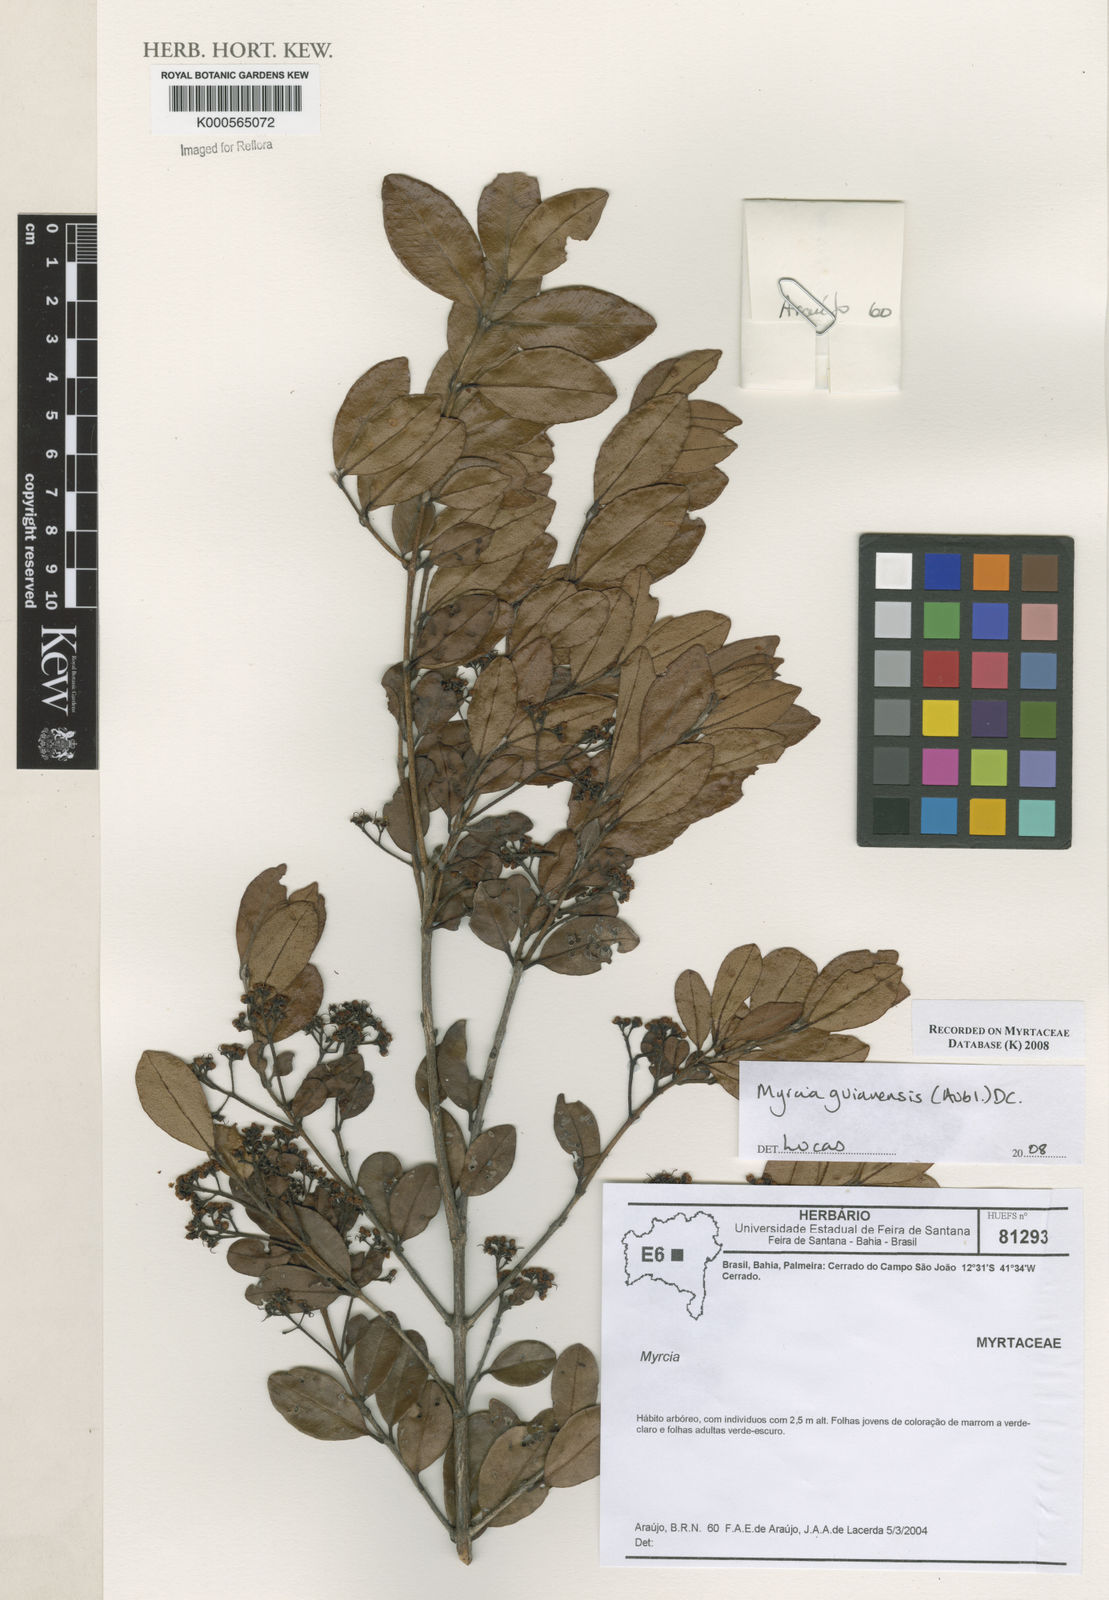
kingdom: Plantae
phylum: Tracheophyta
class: Magnoliopsida
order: Myrtales
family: Myrtaceae
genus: Myrcia
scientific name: Myrcia guianensis
